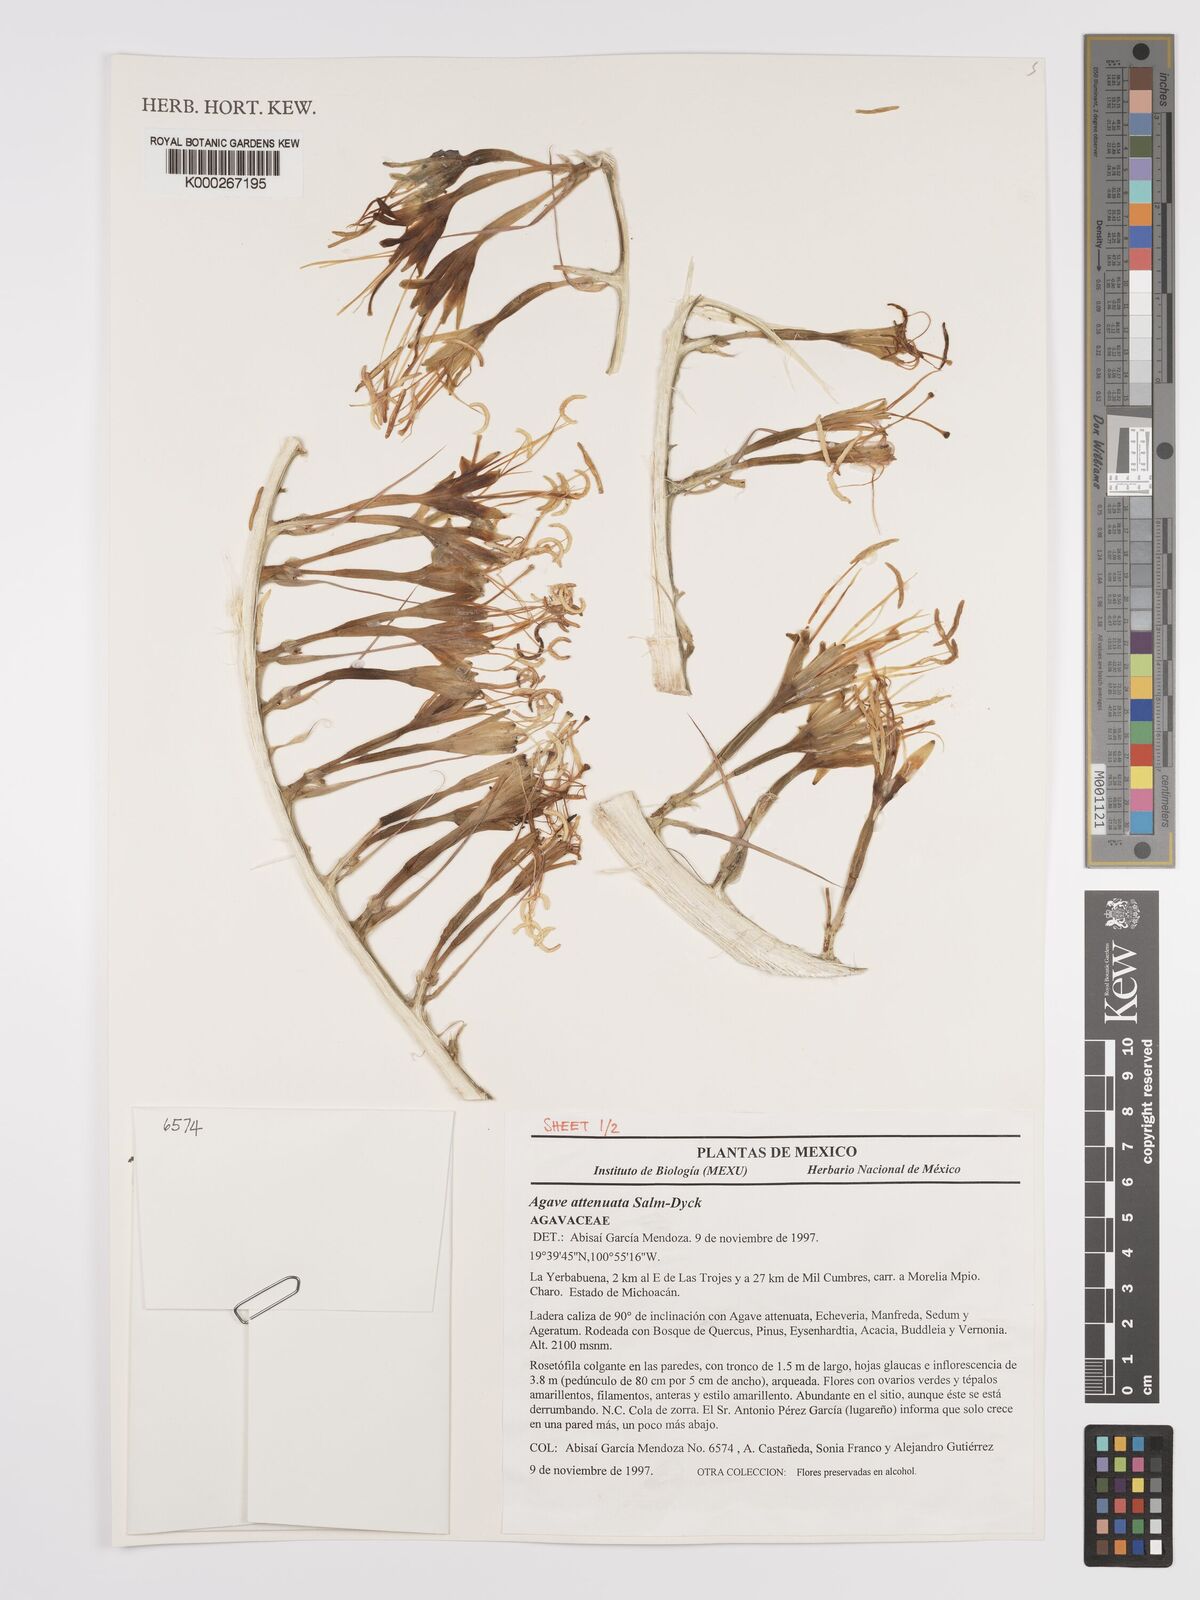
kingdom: Plantae
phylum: Tracheophyta
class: Liliopsida
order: Asparagales
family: Asparagaceae
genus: Agave
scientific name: Agave attenuata
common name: Fox tail agave
